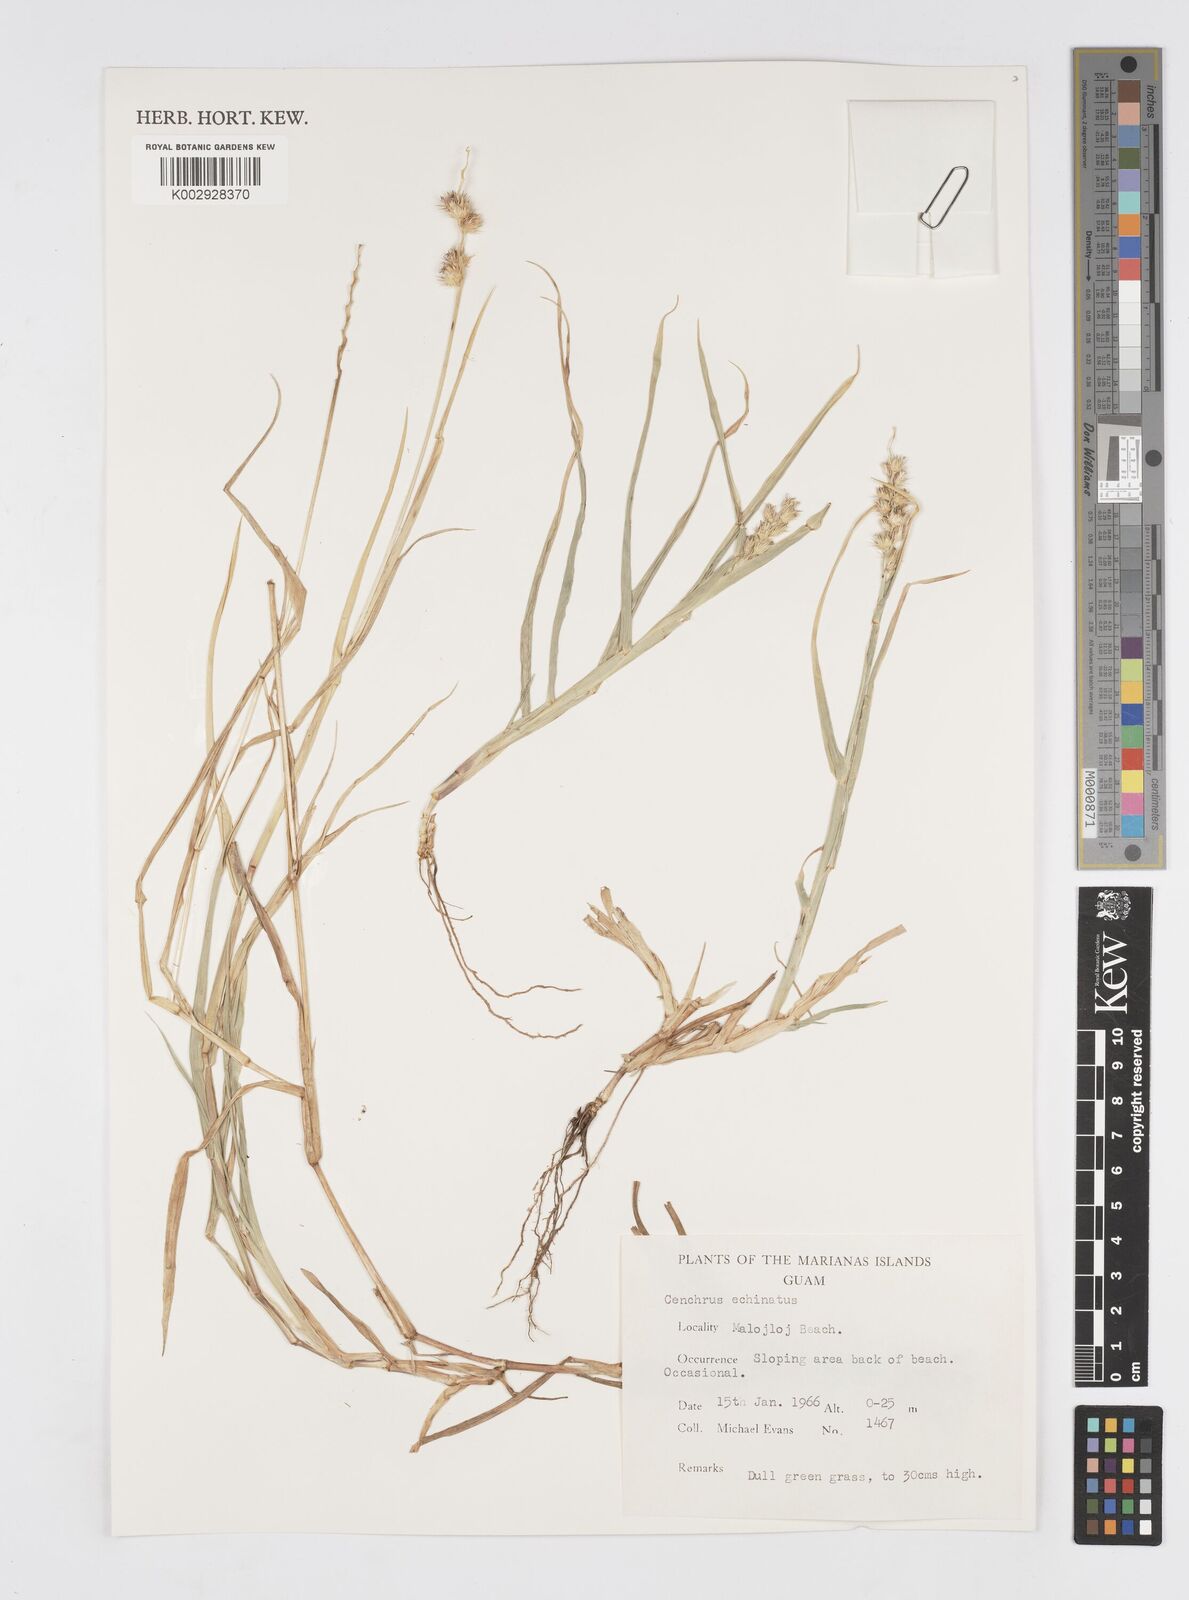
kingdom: Plantae
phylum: Tracheophyta
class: Liliopsida
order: Poales
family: Poaceae
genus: Cenchrus
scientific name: Cenchrus echinatus
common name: Southern sandbur
